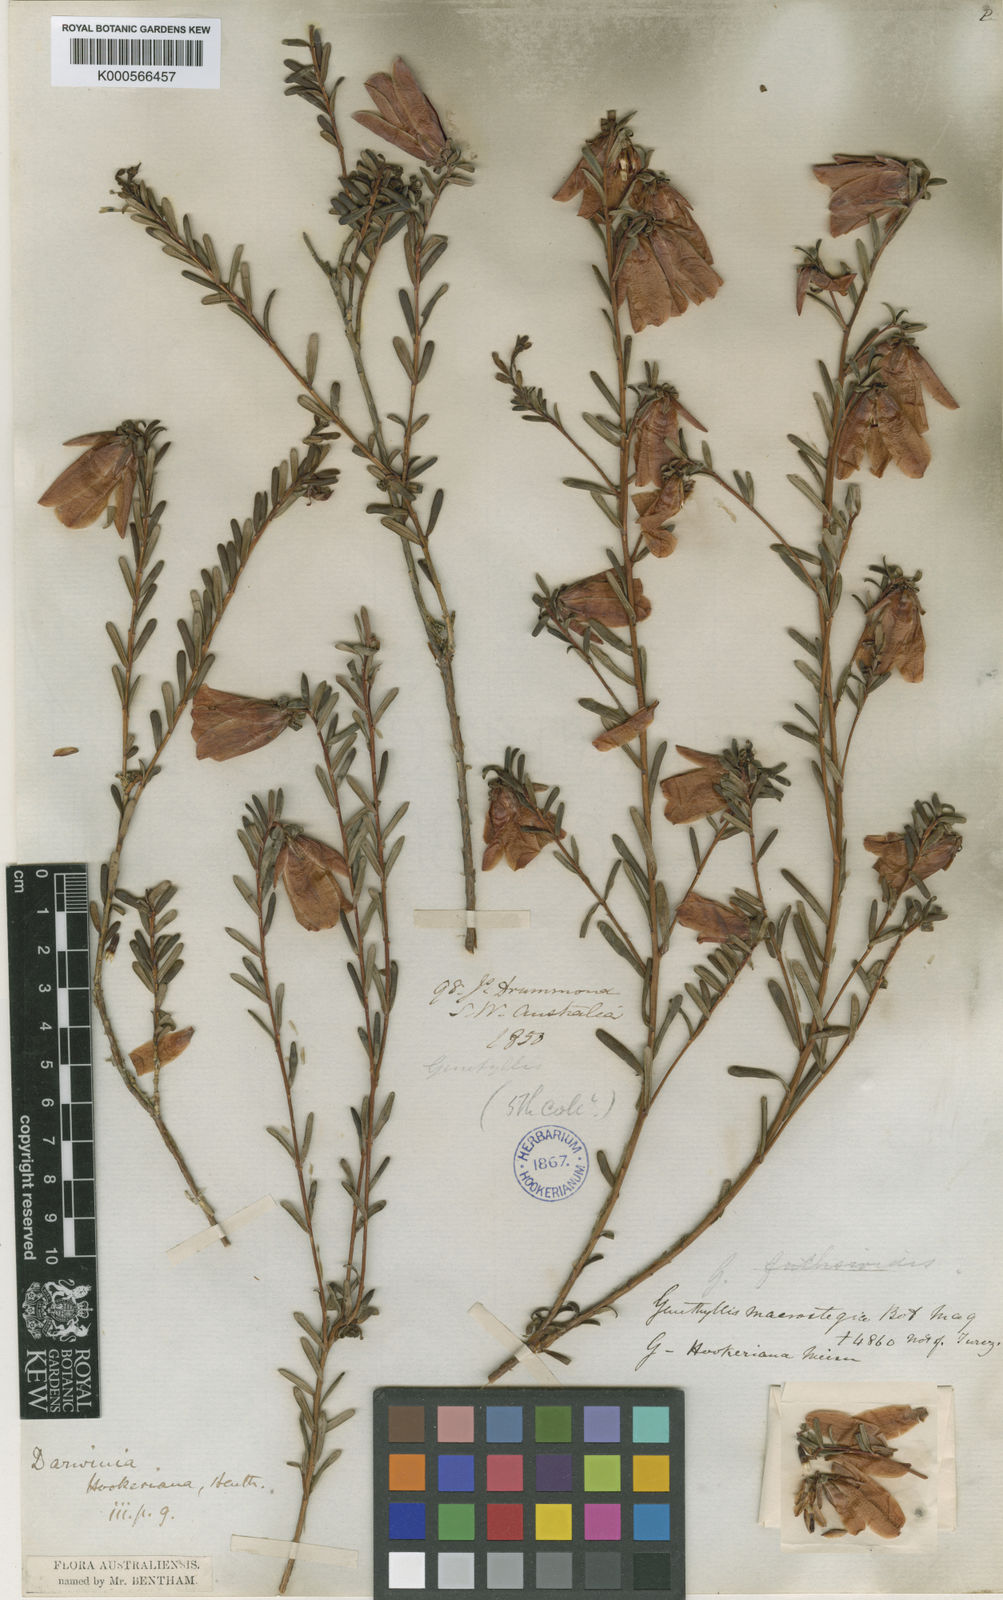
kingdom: Plantae
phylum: Tracheophyta
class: Magnoliopsida
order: Myrtales
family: Myrtaceae
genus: Darwinia
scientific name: Darwinia hypericifolia
